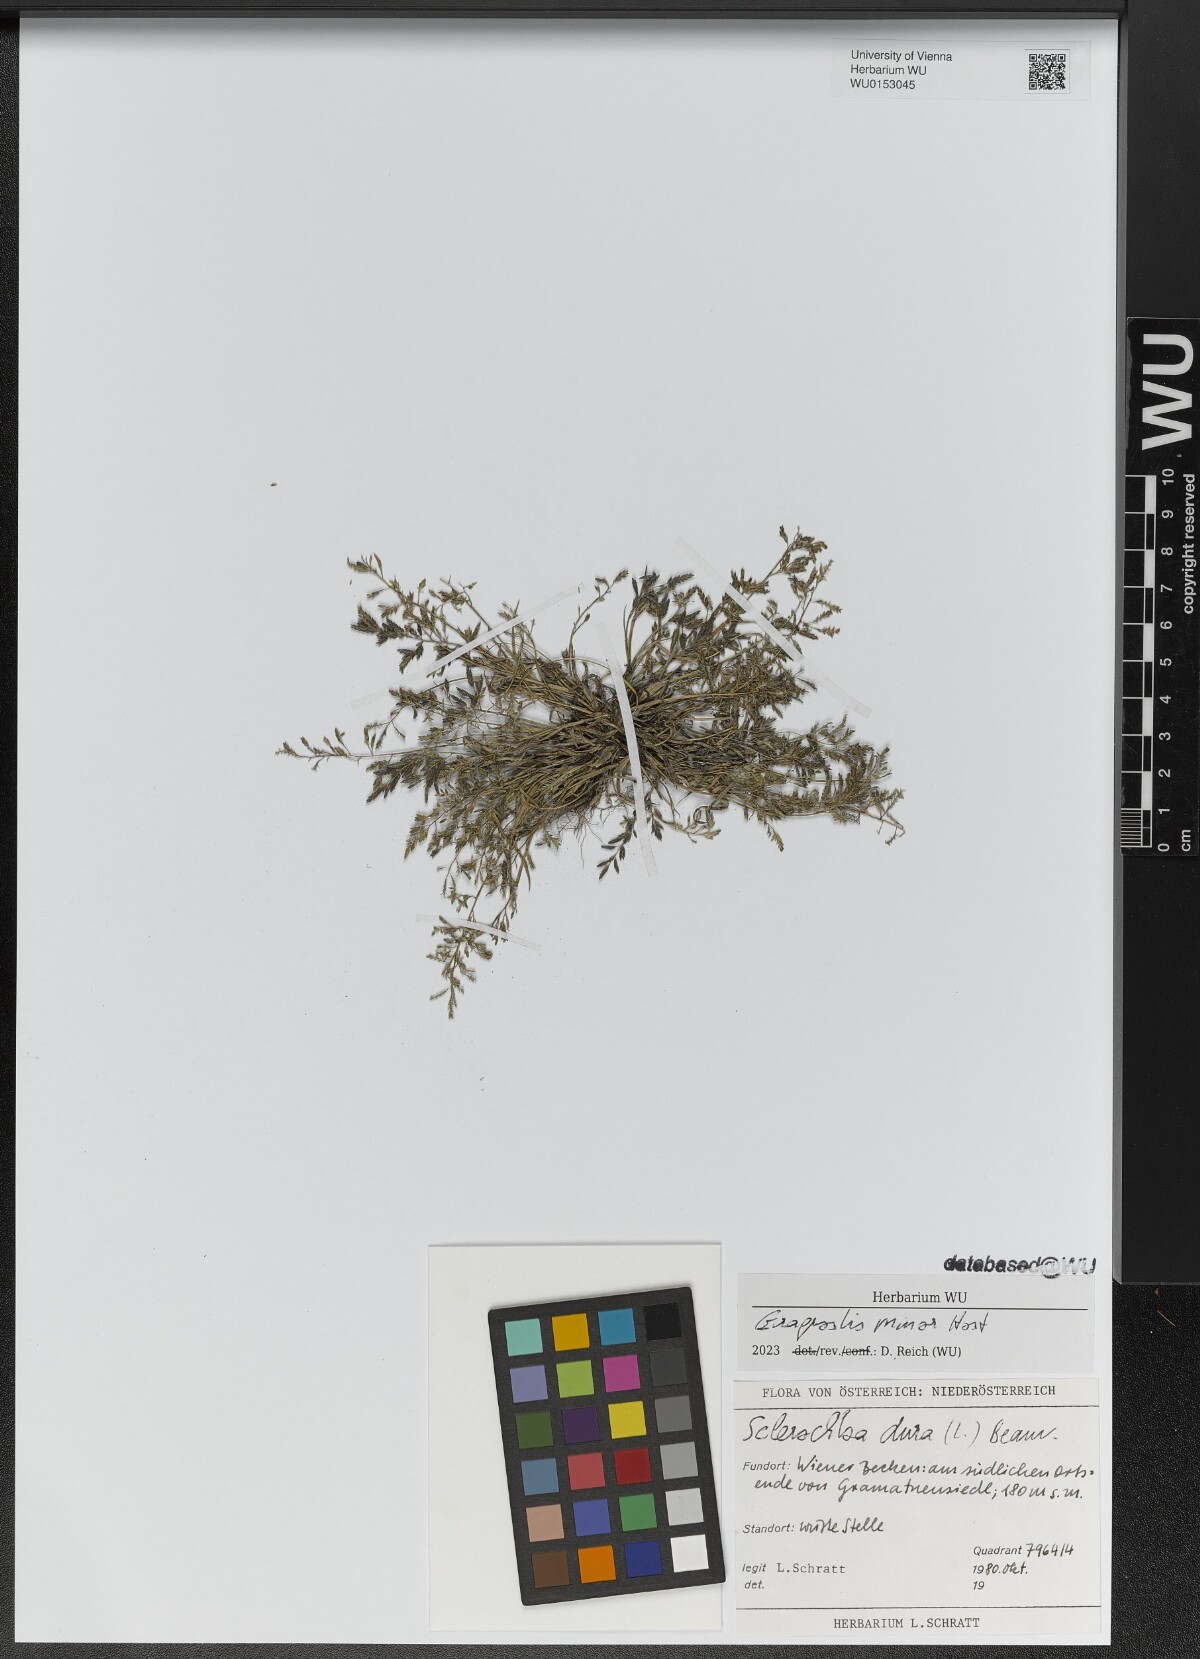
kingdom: Plantae
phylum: Tracheophyta
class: Liliopsida
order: Poales
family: Poaceae
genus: Eragrostis
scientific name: Eragrostis minor
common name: Small love-grass
